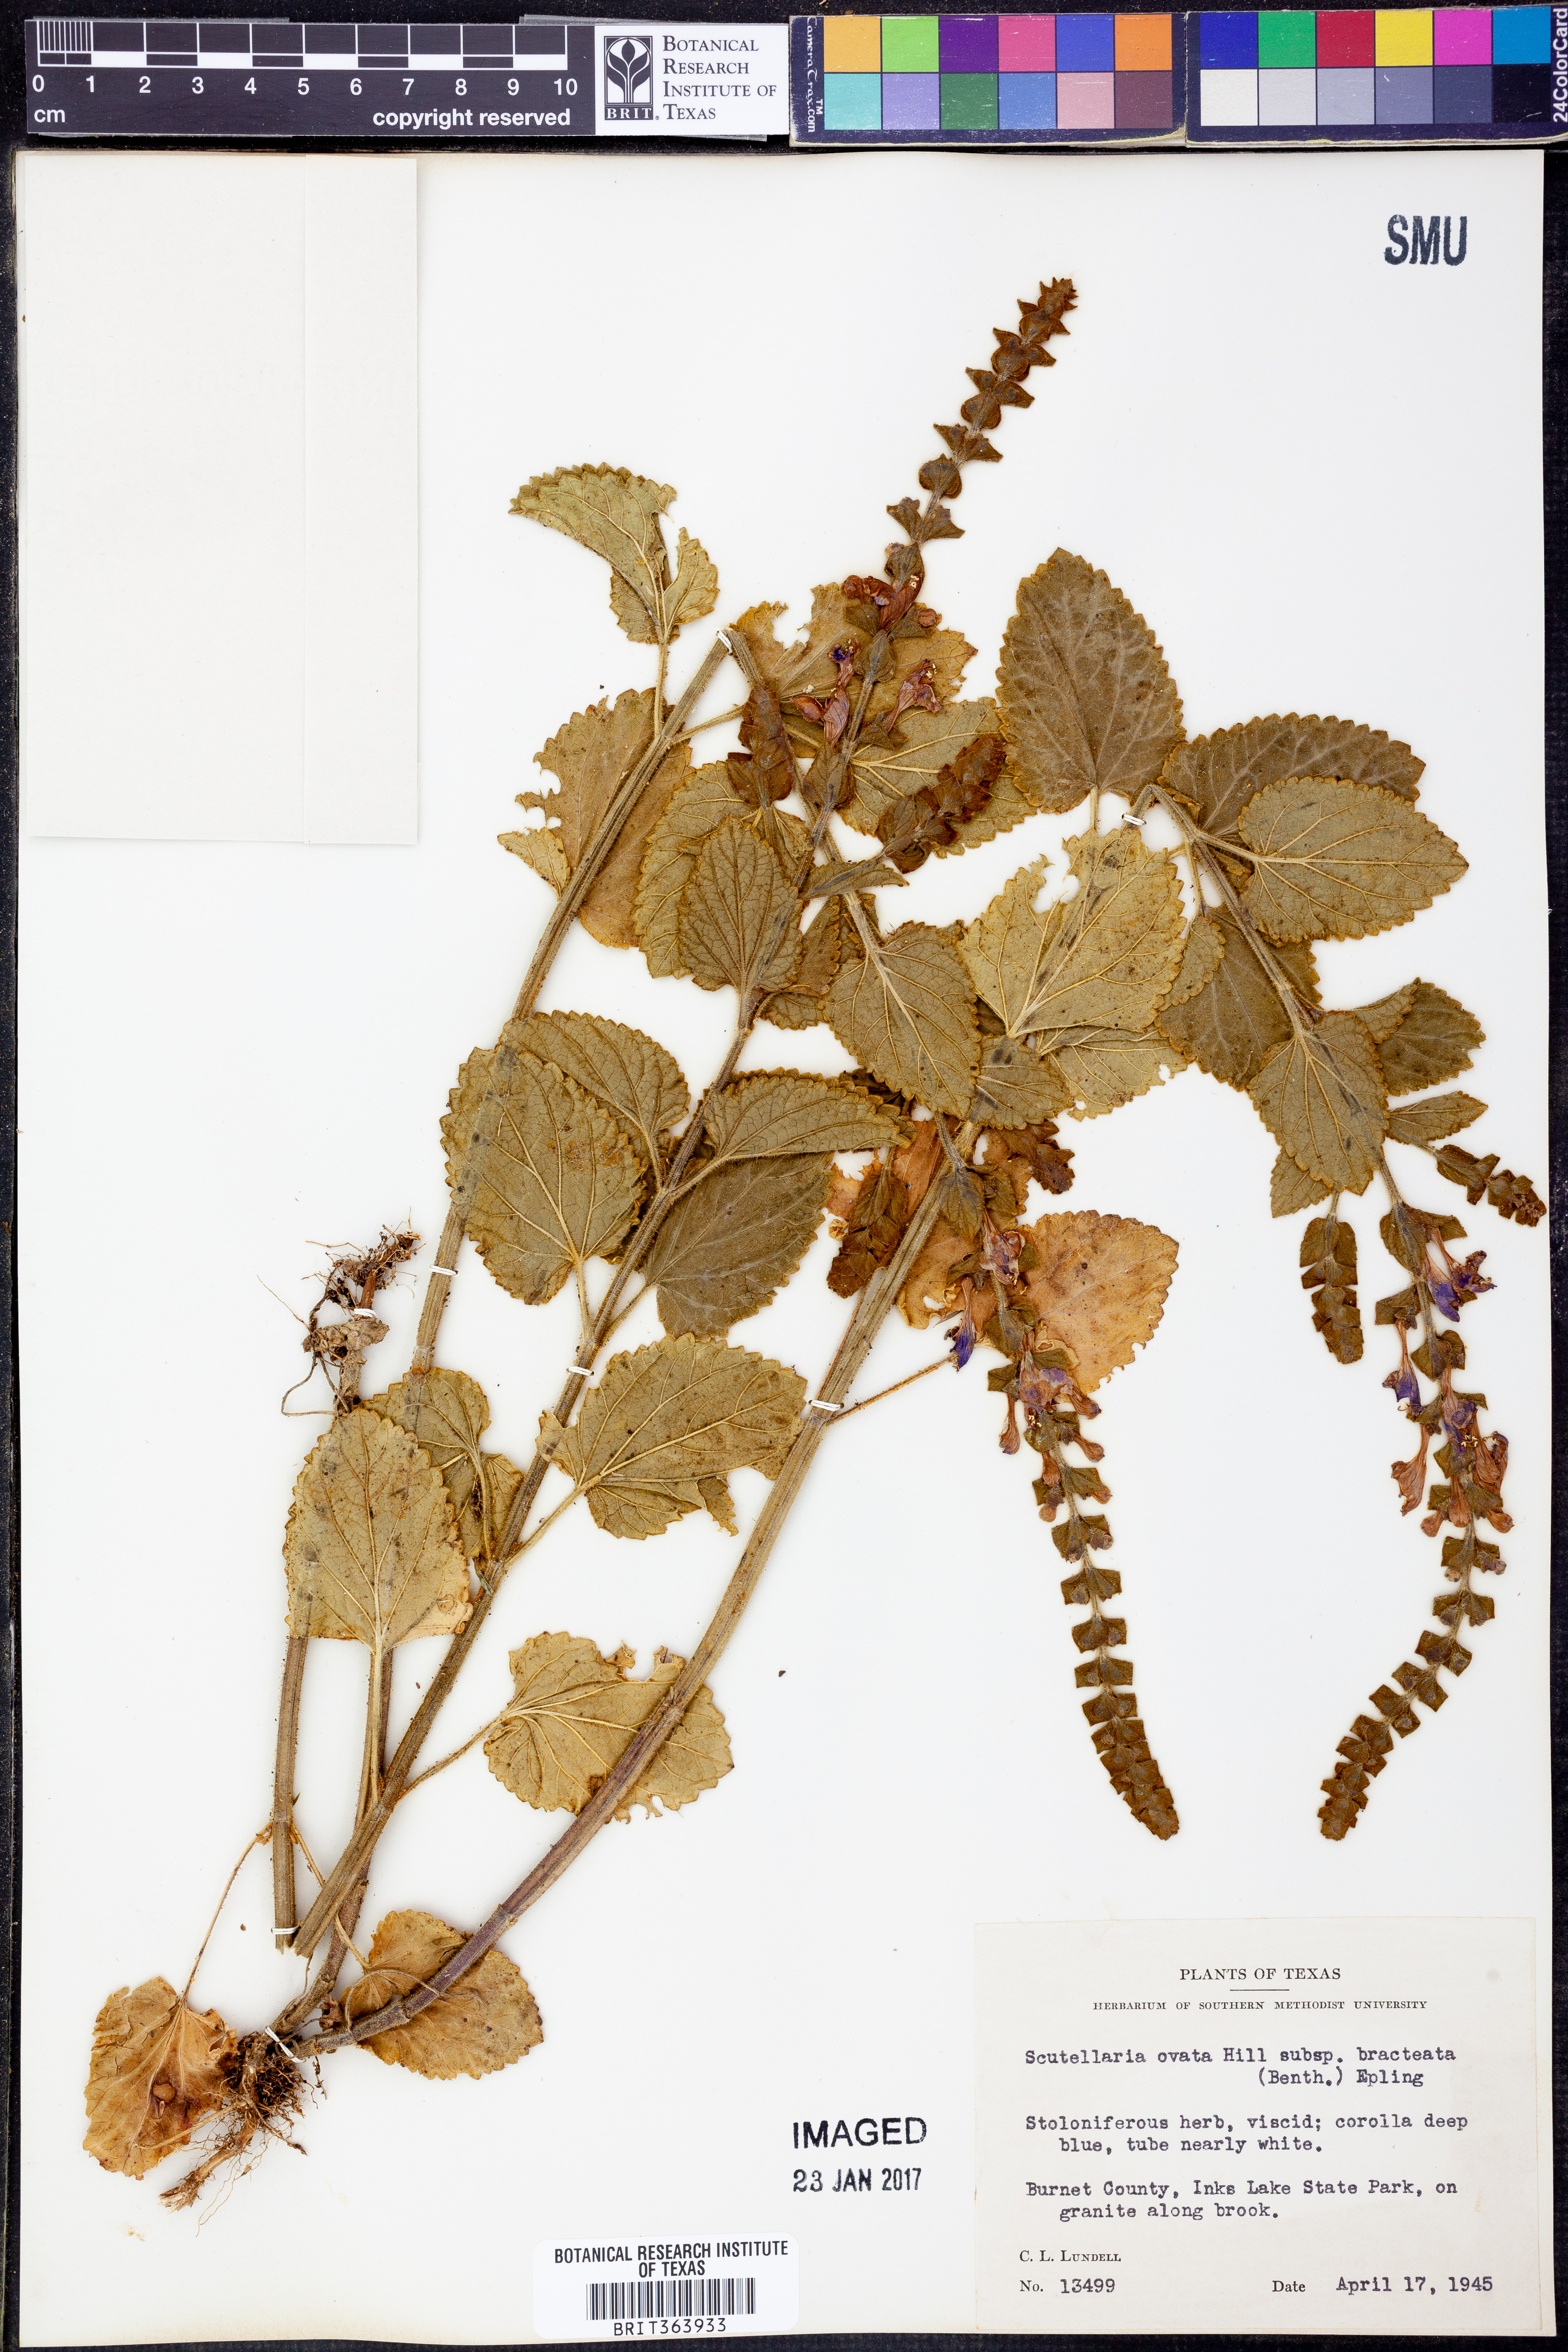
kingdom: Plantae
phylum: Tracheophyta
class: Magnoliopsida
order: Lamiales
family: Lamiaceae
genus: Scutellaria
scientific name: Scutellaria ovata
